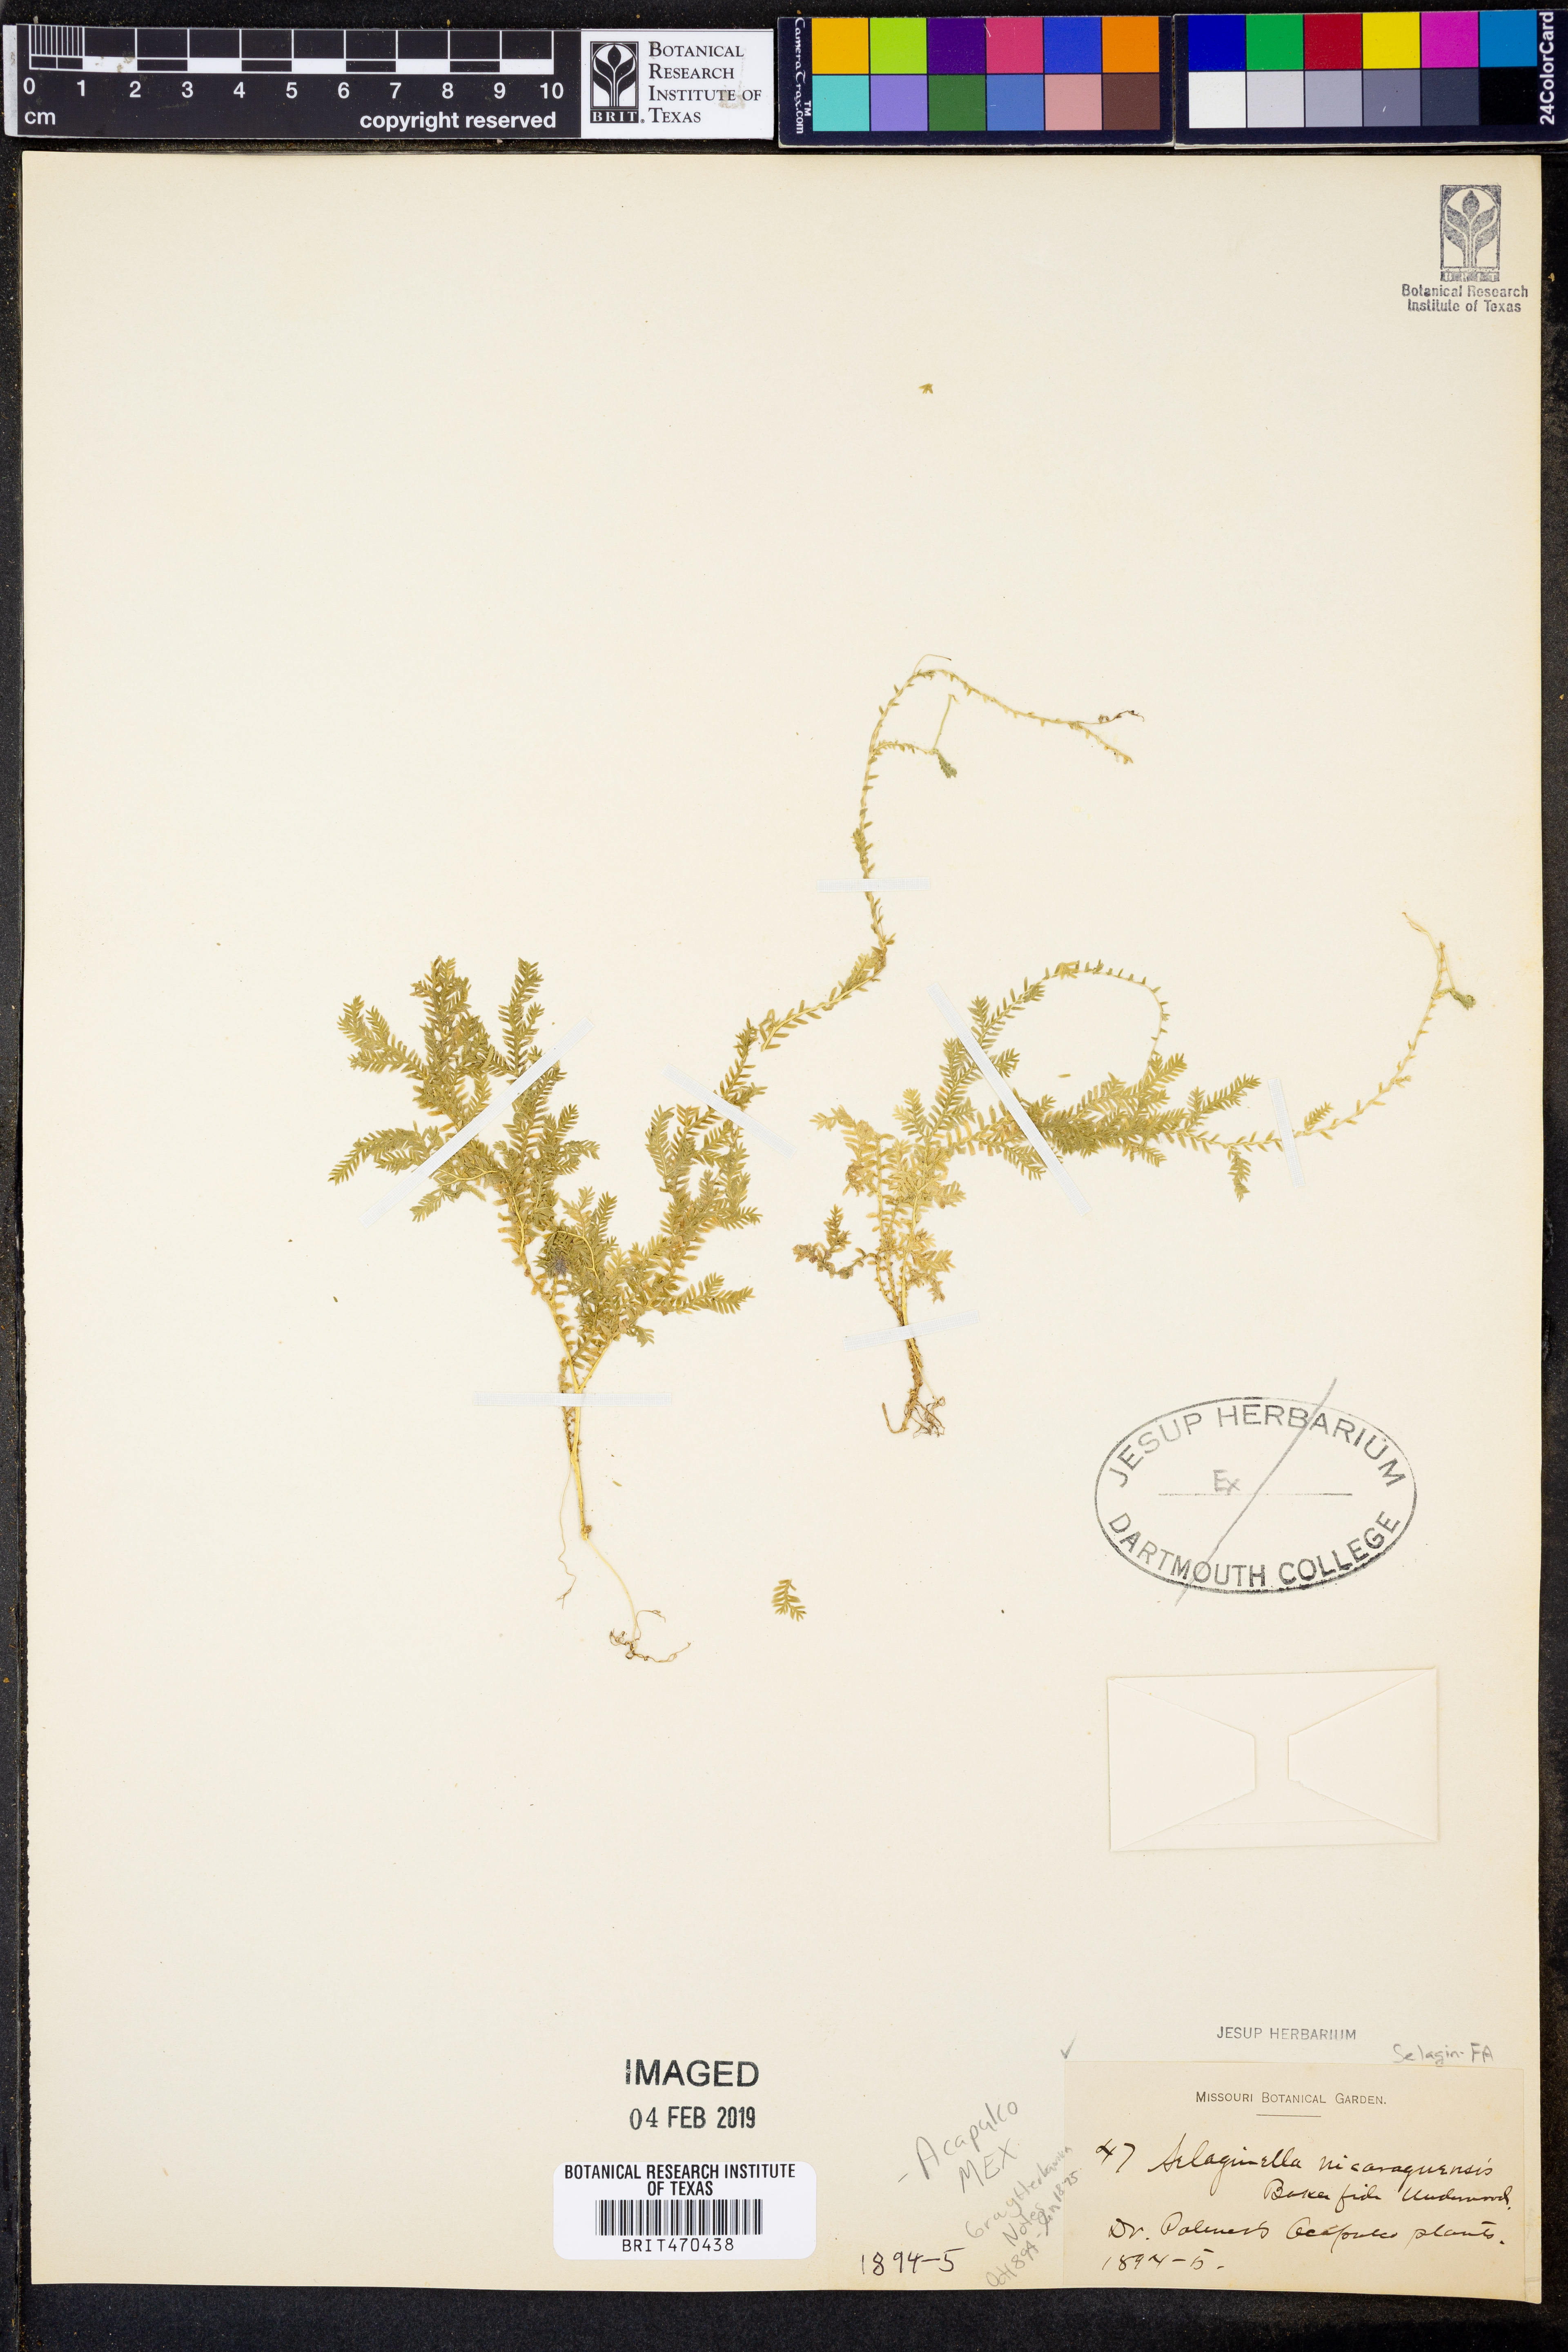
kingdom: Plantae
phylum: Tracheophyta
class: Lycopodiopsida
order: Selaginellales
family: Selaginellaceae
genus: Selaginella
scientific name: Selaginella sertata
